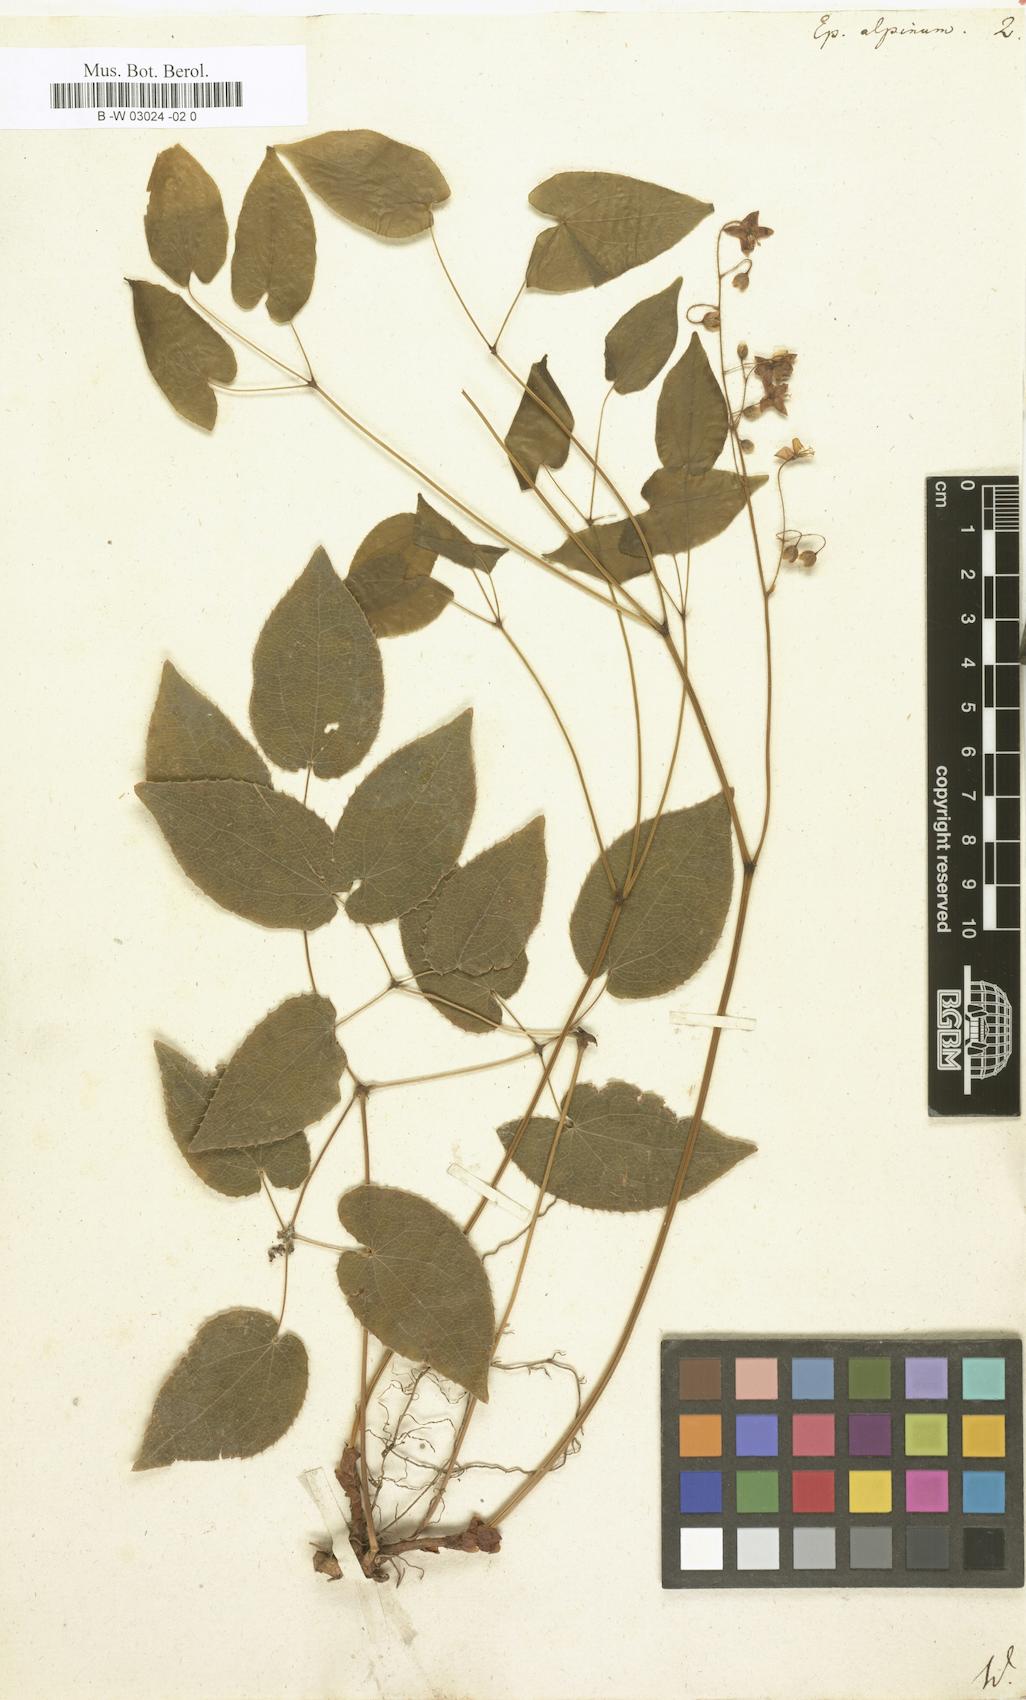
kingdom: Plantae
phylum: Tracheophyta
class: Magnoliopsida
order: Ranunculales
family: Berberidaceae
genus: Epimedium
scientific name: Epimedium alpinum
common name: Barrenwort
